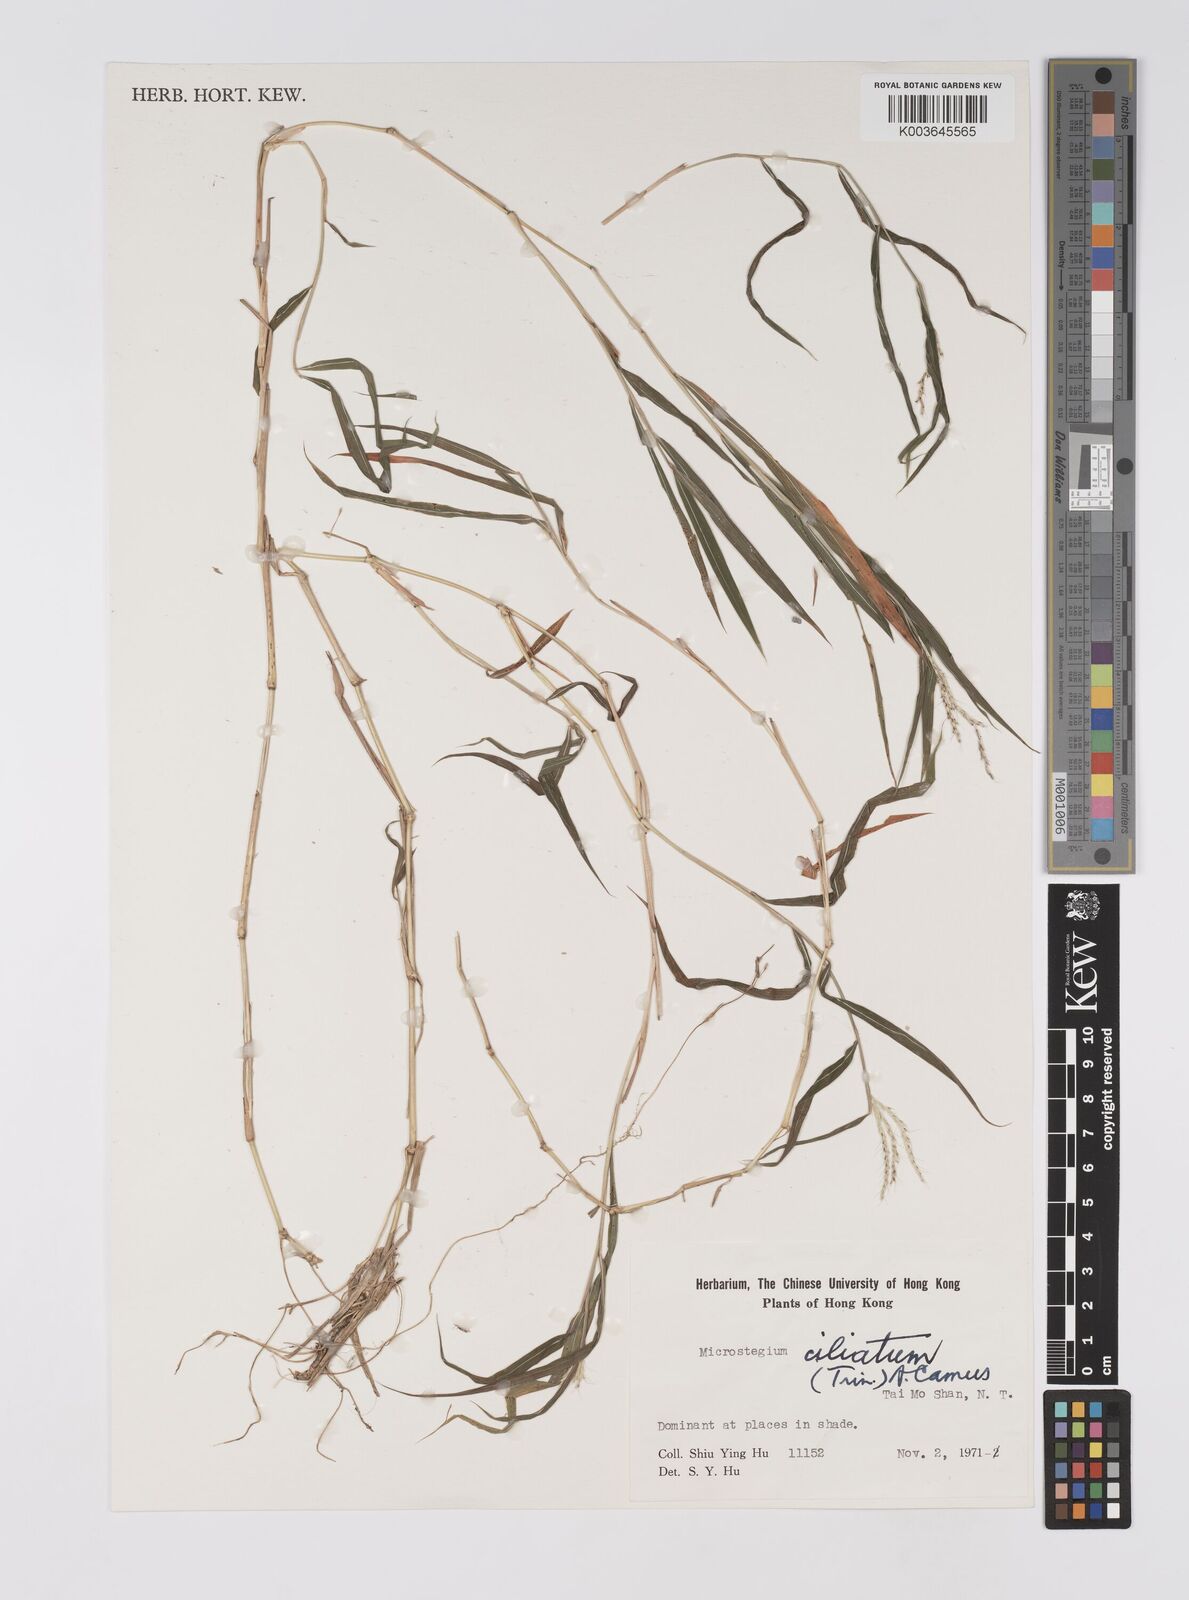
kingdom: Plantae
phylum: Tracheophyta
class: Liliopsida
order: Poales
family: Poaceae
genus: Microstegium
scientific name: Microstegium fasciculatum
